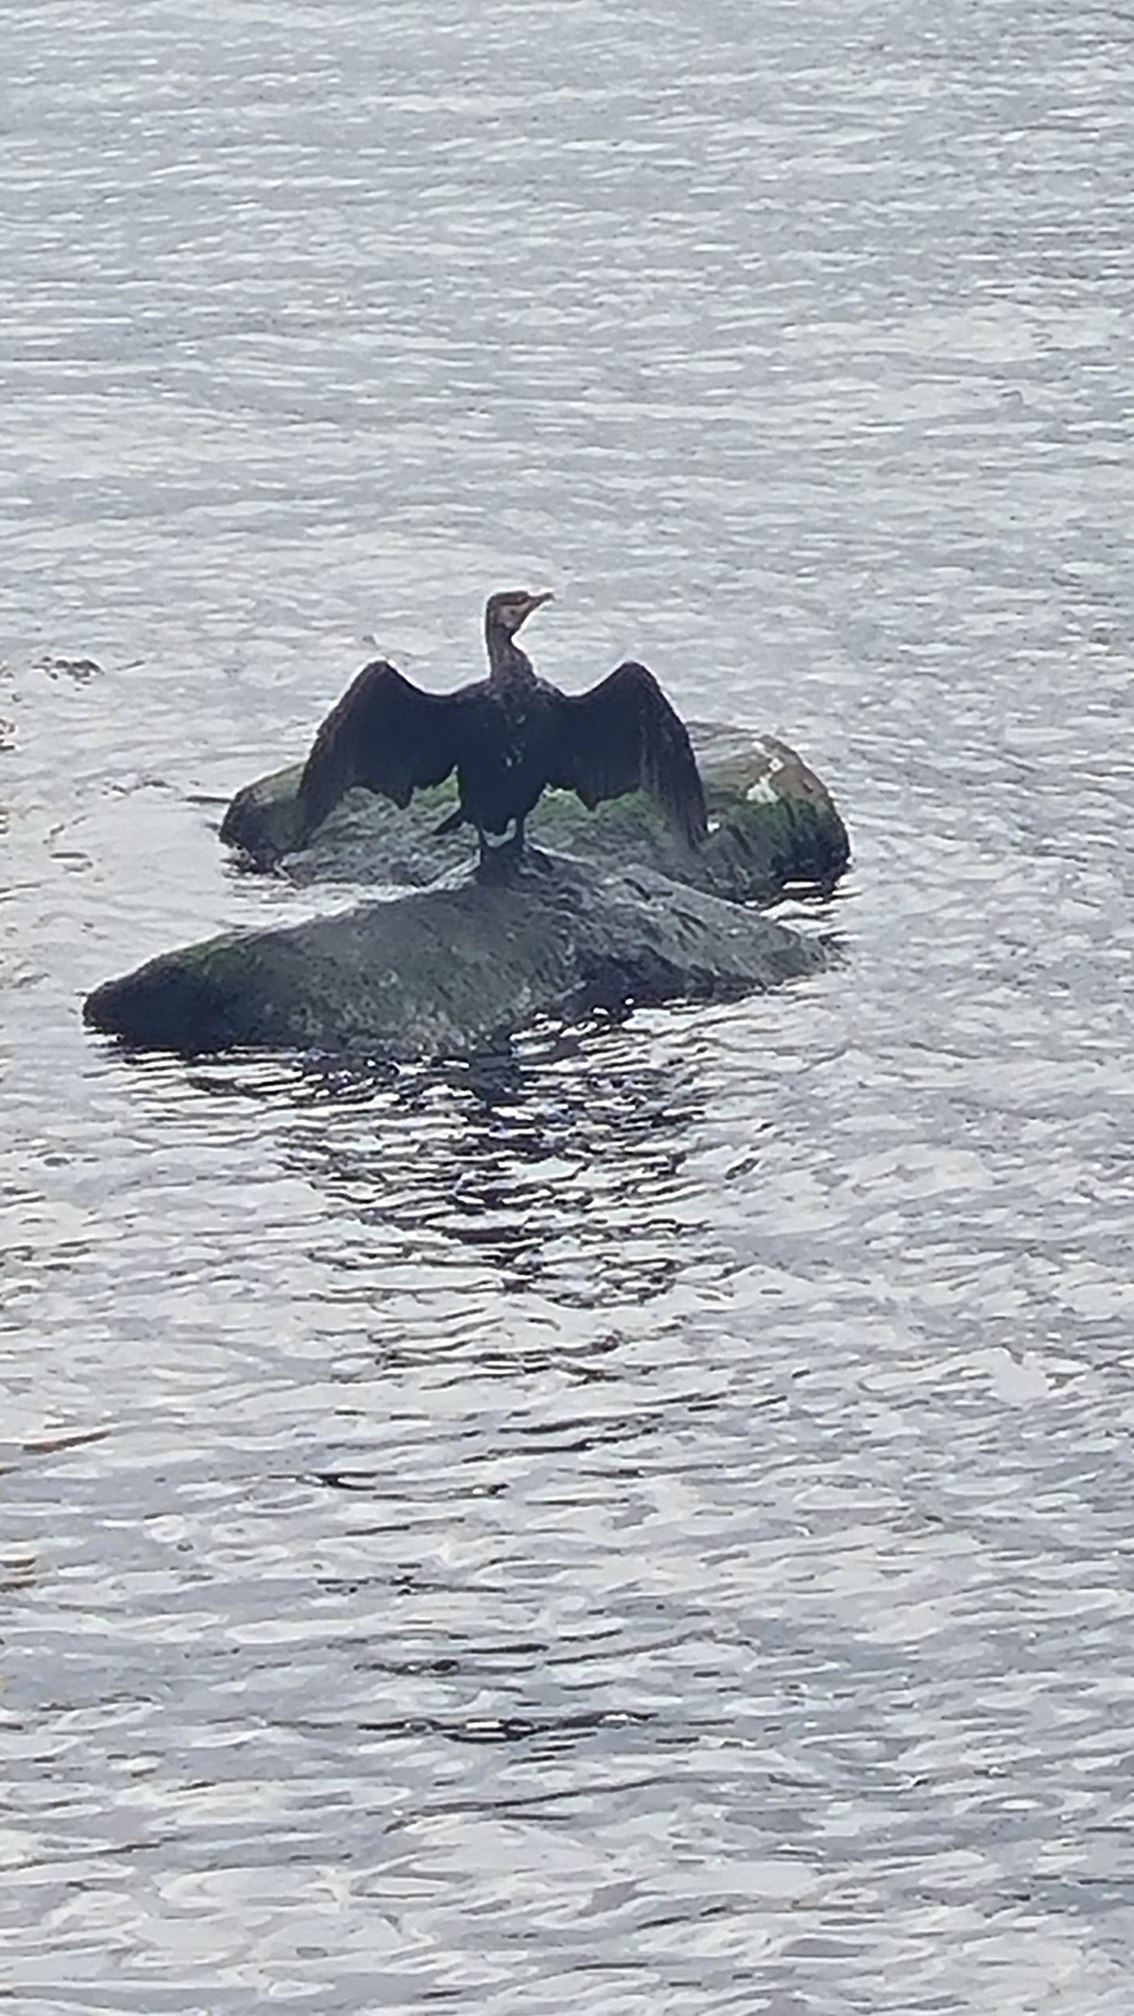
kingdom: Animalia
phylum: Chordata
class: Aves
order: Suliformes
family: Phalacrocoracidae
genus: Phalacrocorax
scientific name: Phalacrocorax carbo
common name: Skarv
